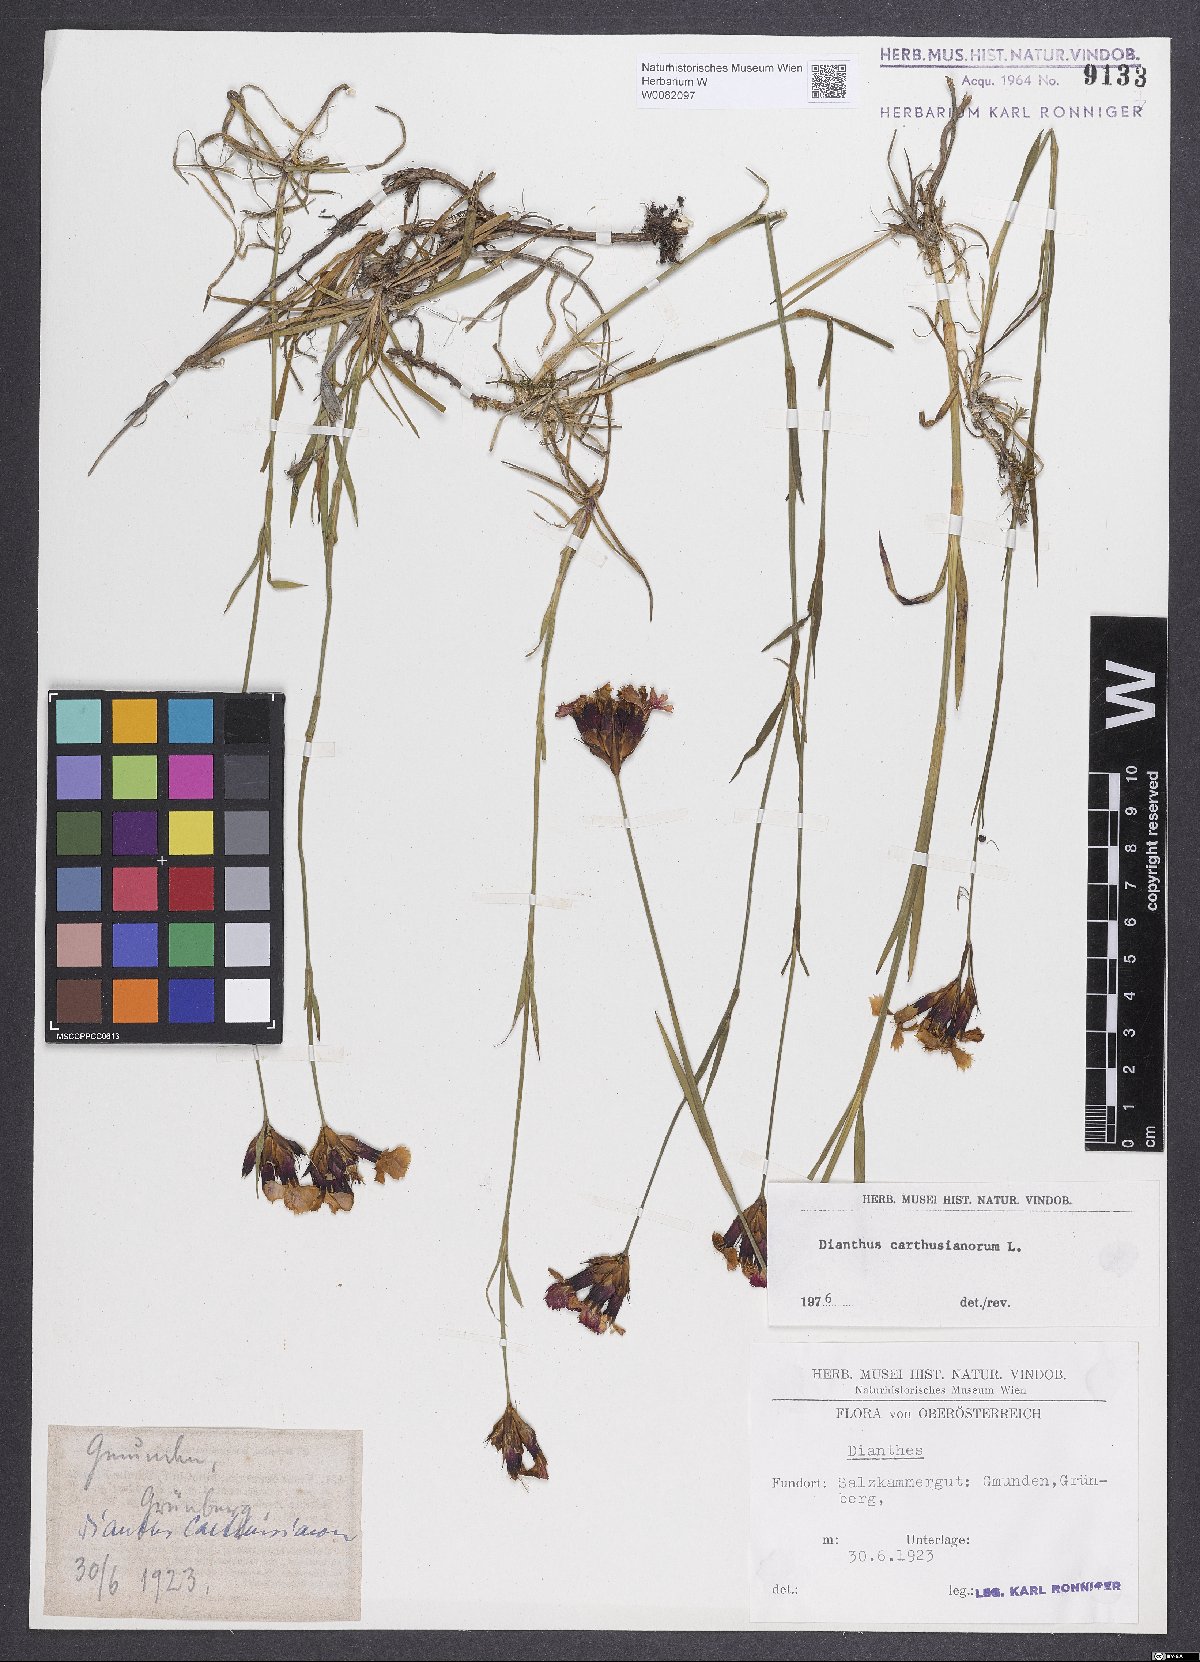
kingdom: Plantae
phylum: Tracheophyta
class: Magnoliopsida
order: Caryophyllales
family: Caryophyllaceae
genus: Dianthus
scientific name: Dianthus carthusianorum
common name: Carthusian pink
